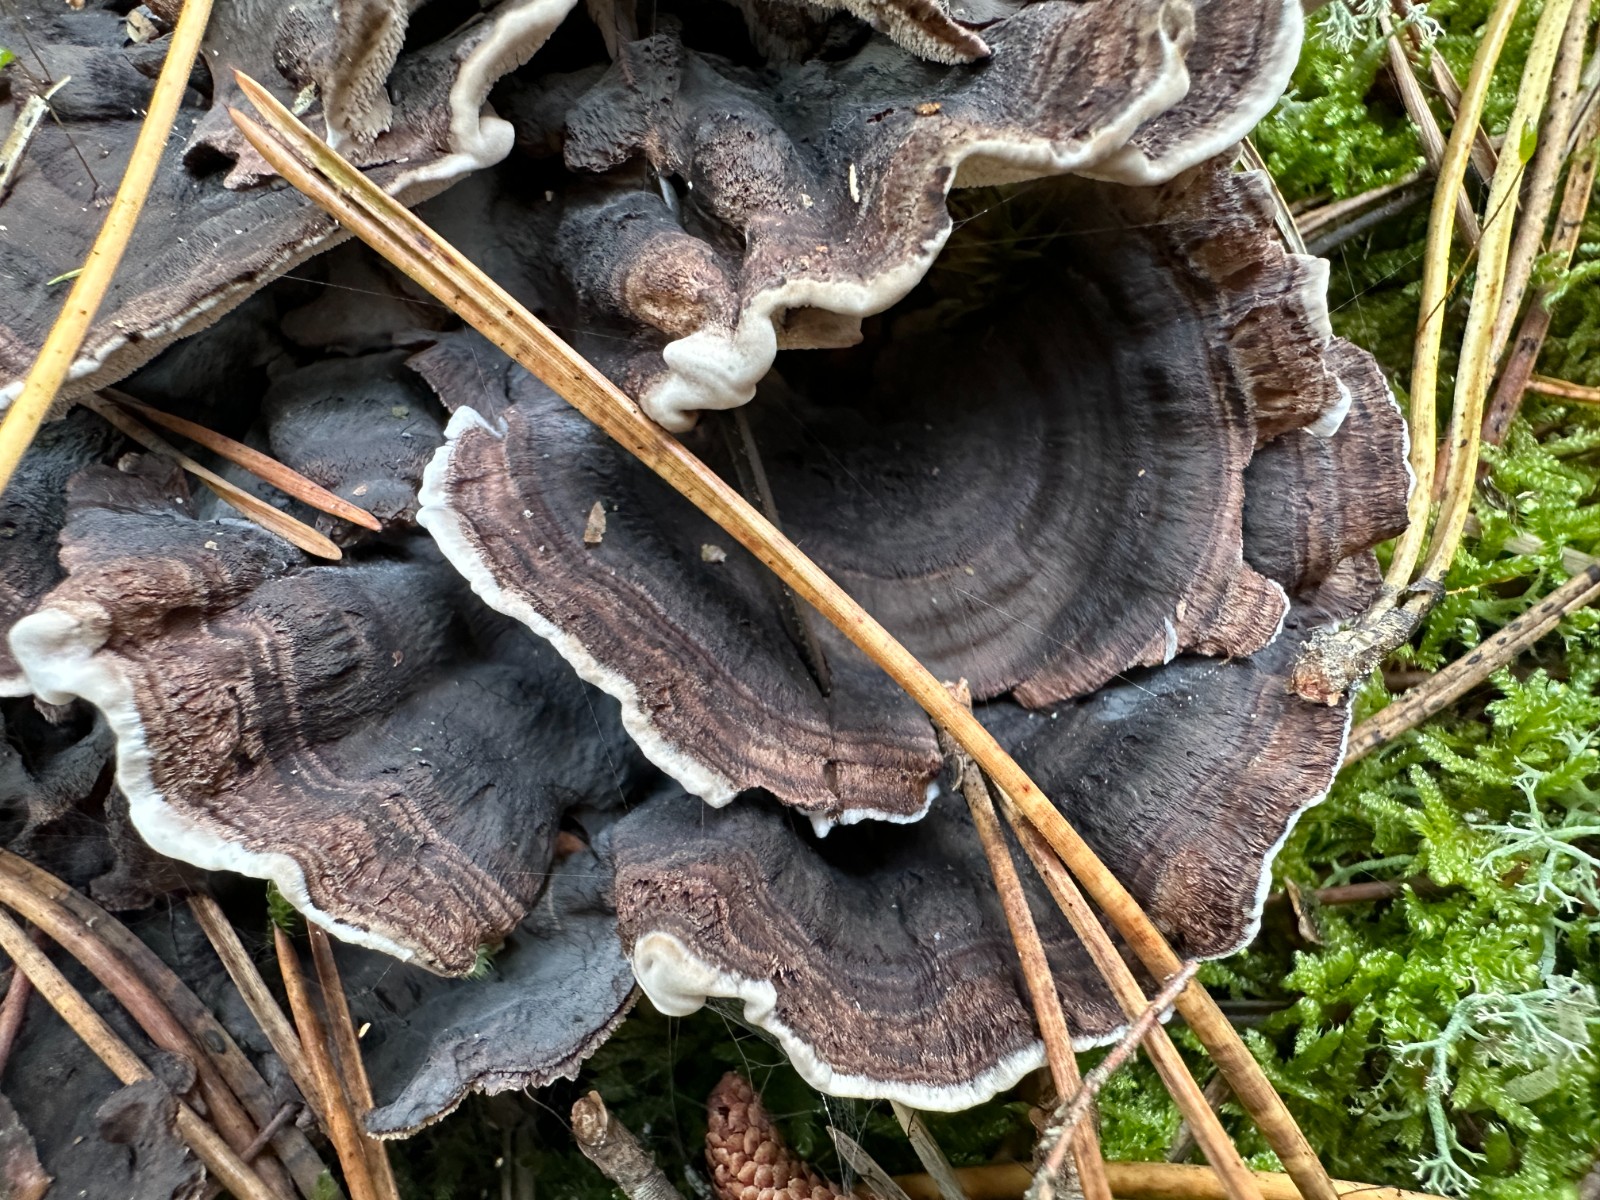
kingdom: Fungi
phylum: Basidiomycota
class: Agaricomycetes
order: Thelephorales
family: Thelephoraceae
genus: Phellodon
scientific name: Phellodon tomentosus
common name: vellugtende duftpigsvamp
